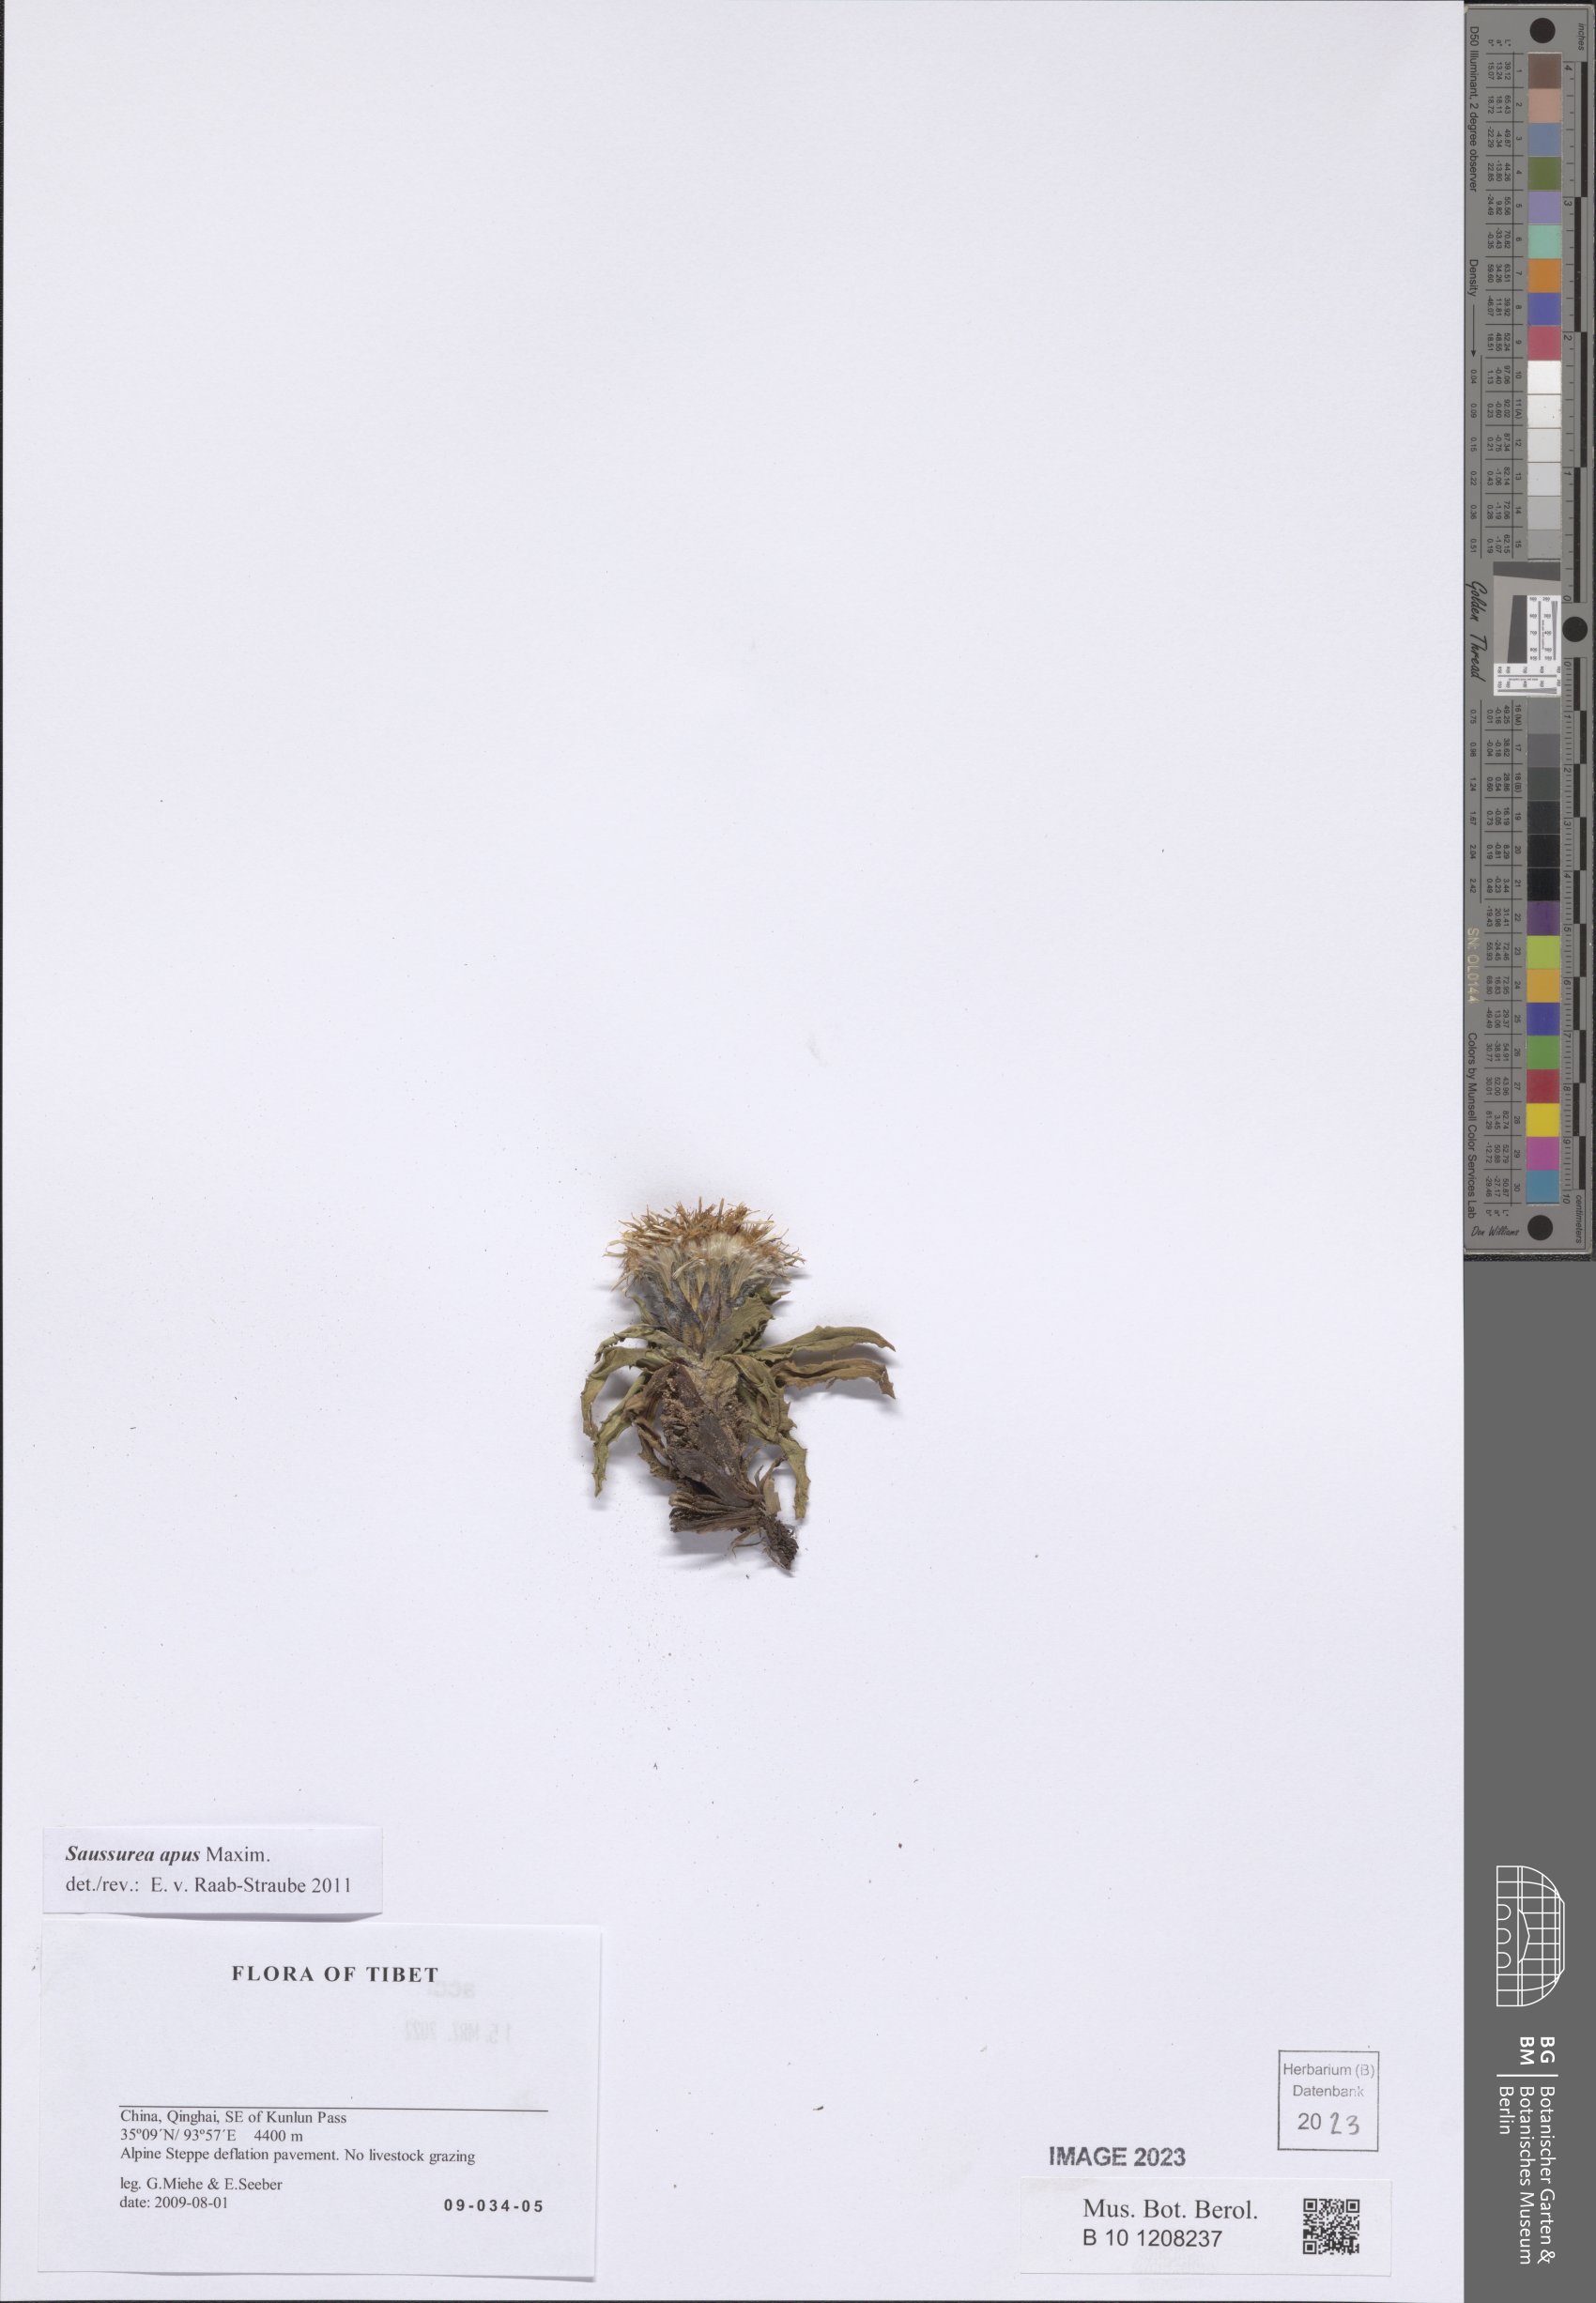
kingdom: Plantae
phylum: Tracheophyta
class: Magnoliopsida
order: Asterales
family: Asteraceae
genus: Saussurea
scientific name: Saussurea apus
